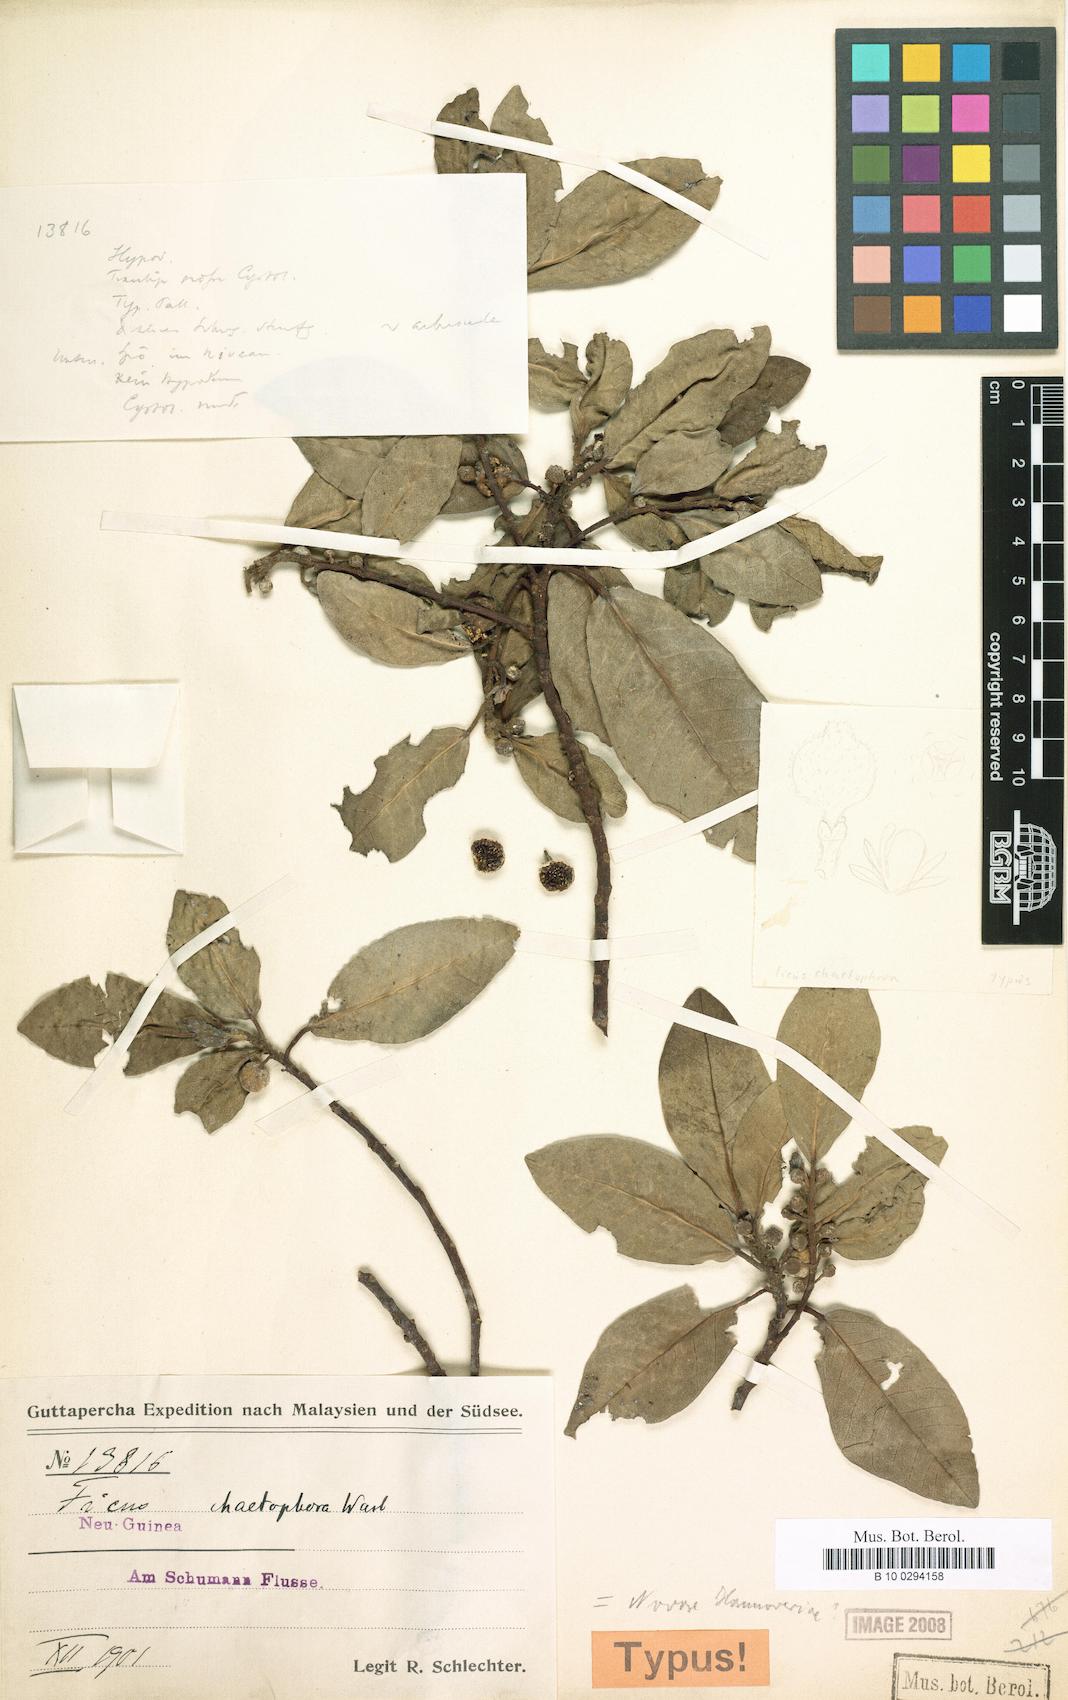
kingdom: Plantae
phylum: Tracheophyta
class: Magnoliopsida
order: Rosales
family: Moraceae
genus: Ficus
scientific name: Ficus adenosperma
